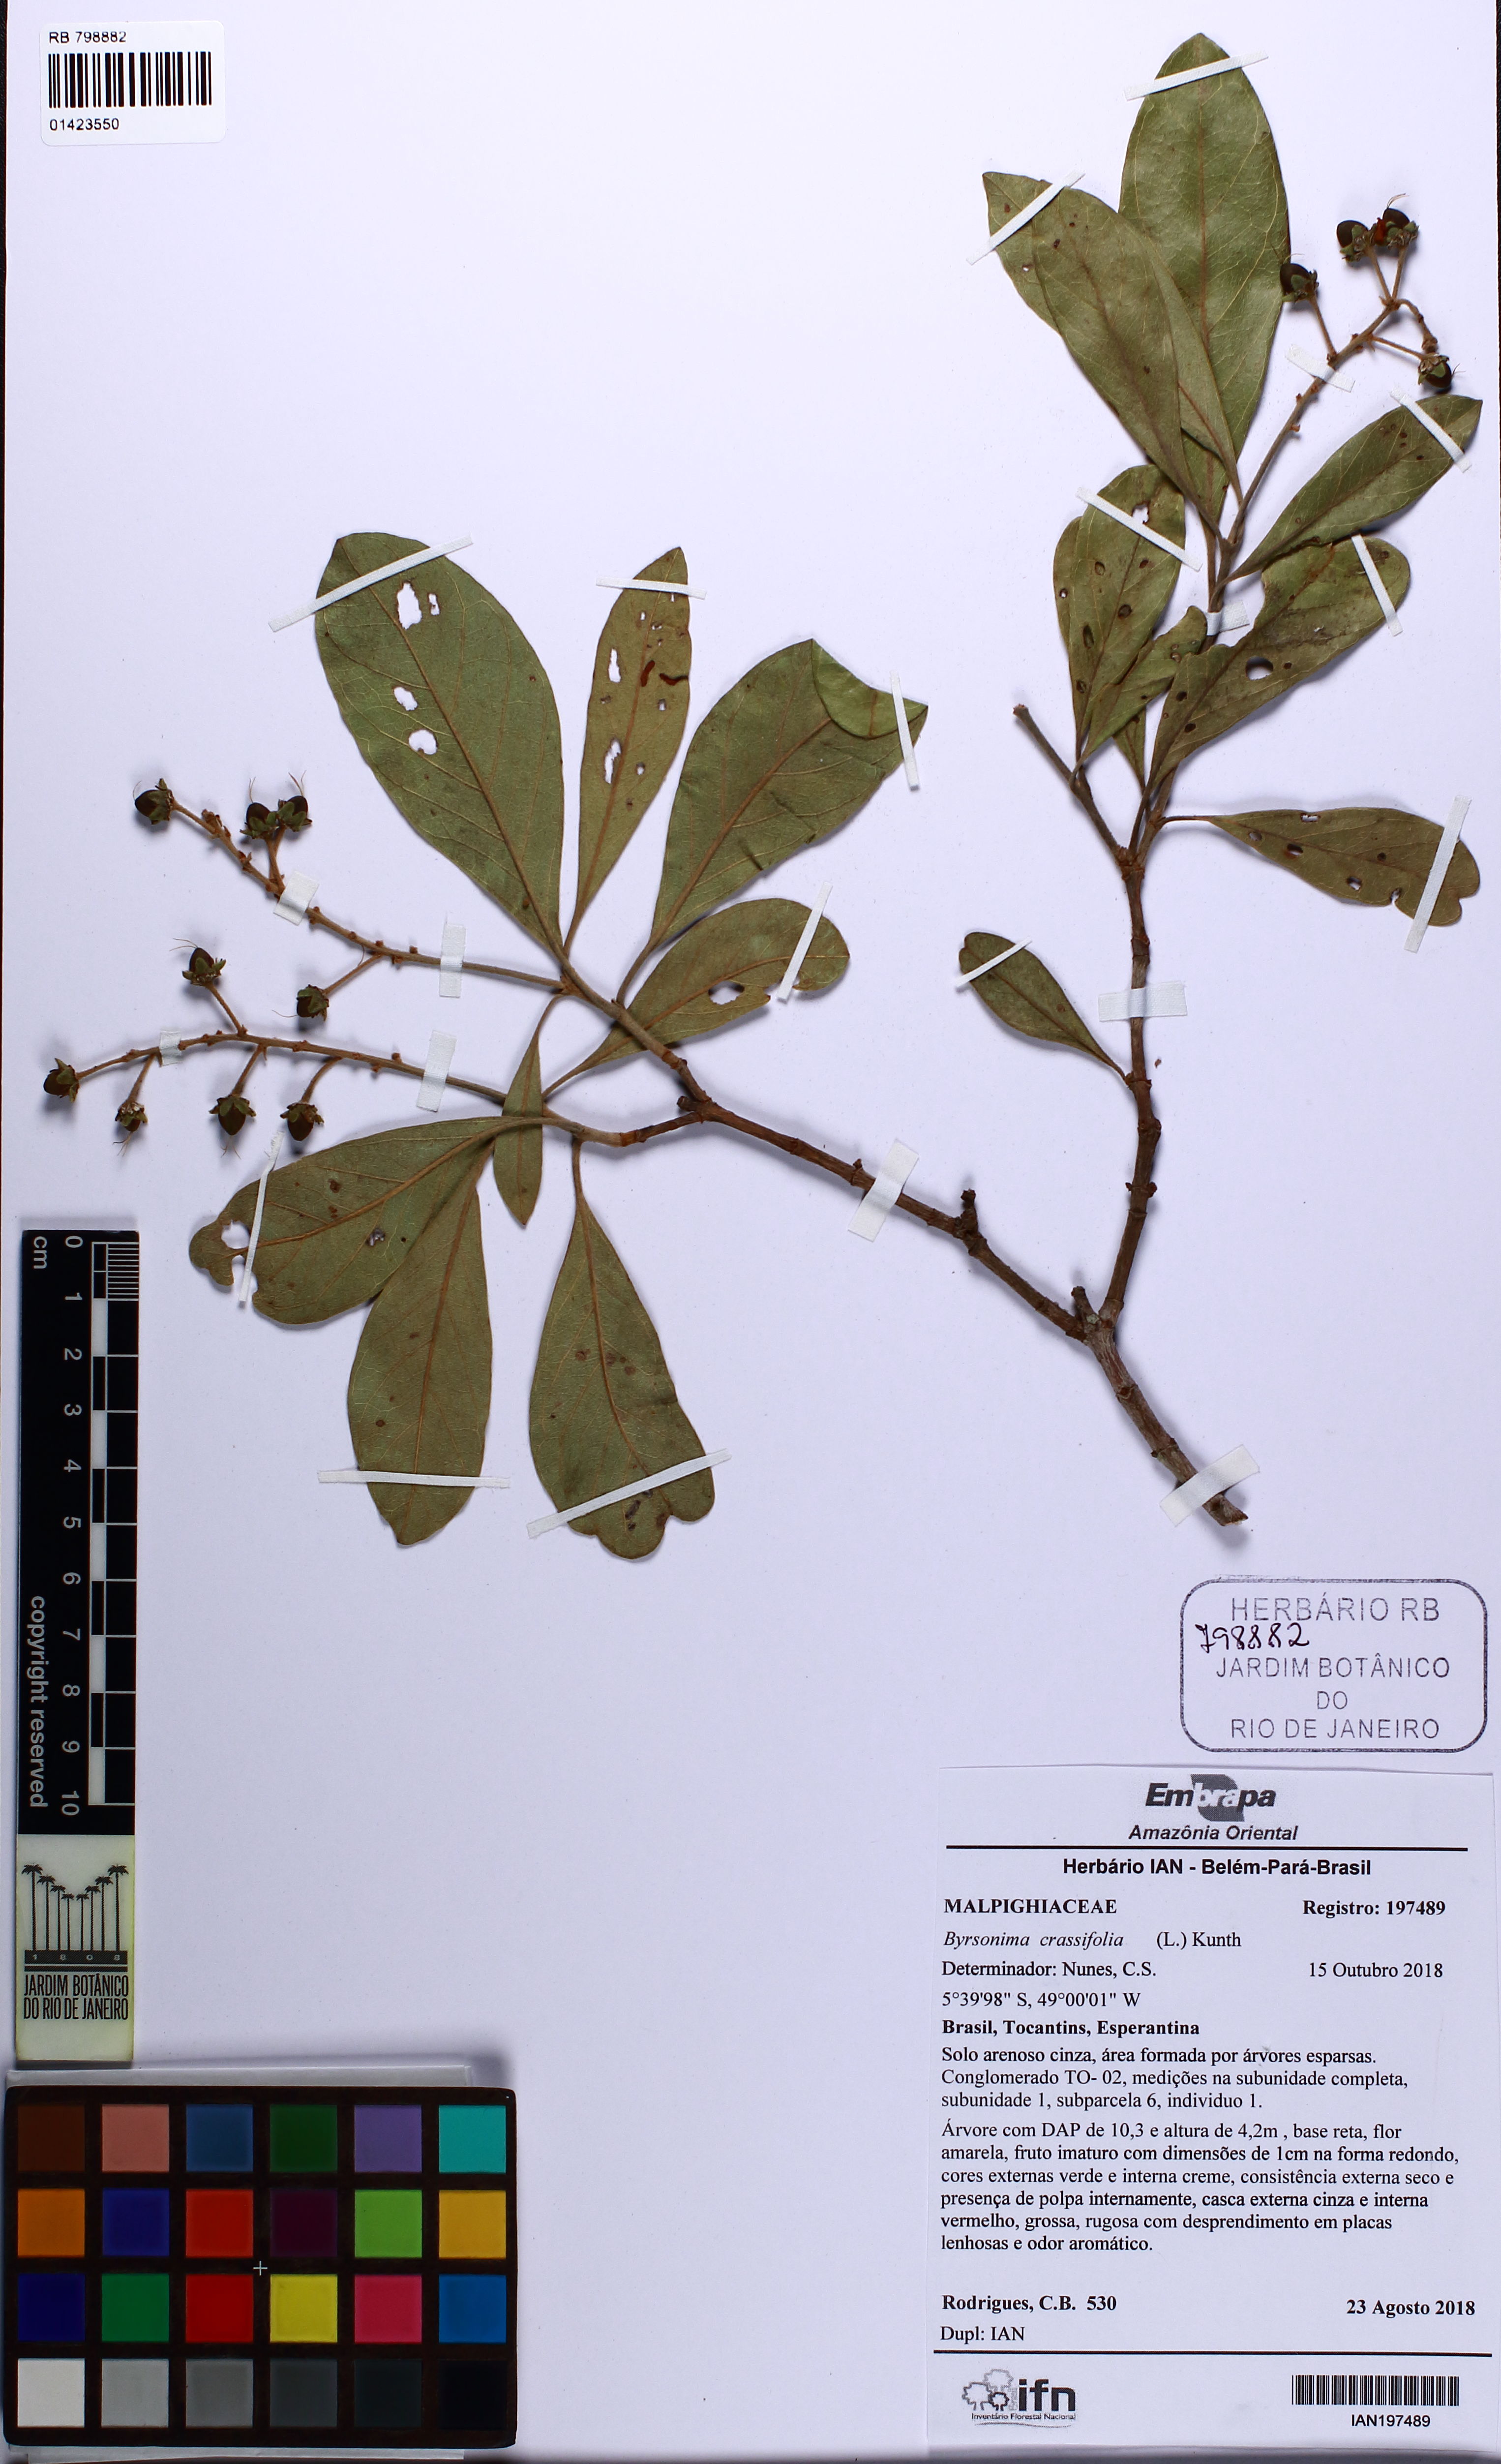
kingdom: Plantae
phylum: Tracheophyta
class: Magnoliopsida
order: Malpighiales
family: Malpighiaceae
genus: Byrsonima
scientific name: Byrsonima crassifolia
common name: Golden spoon
